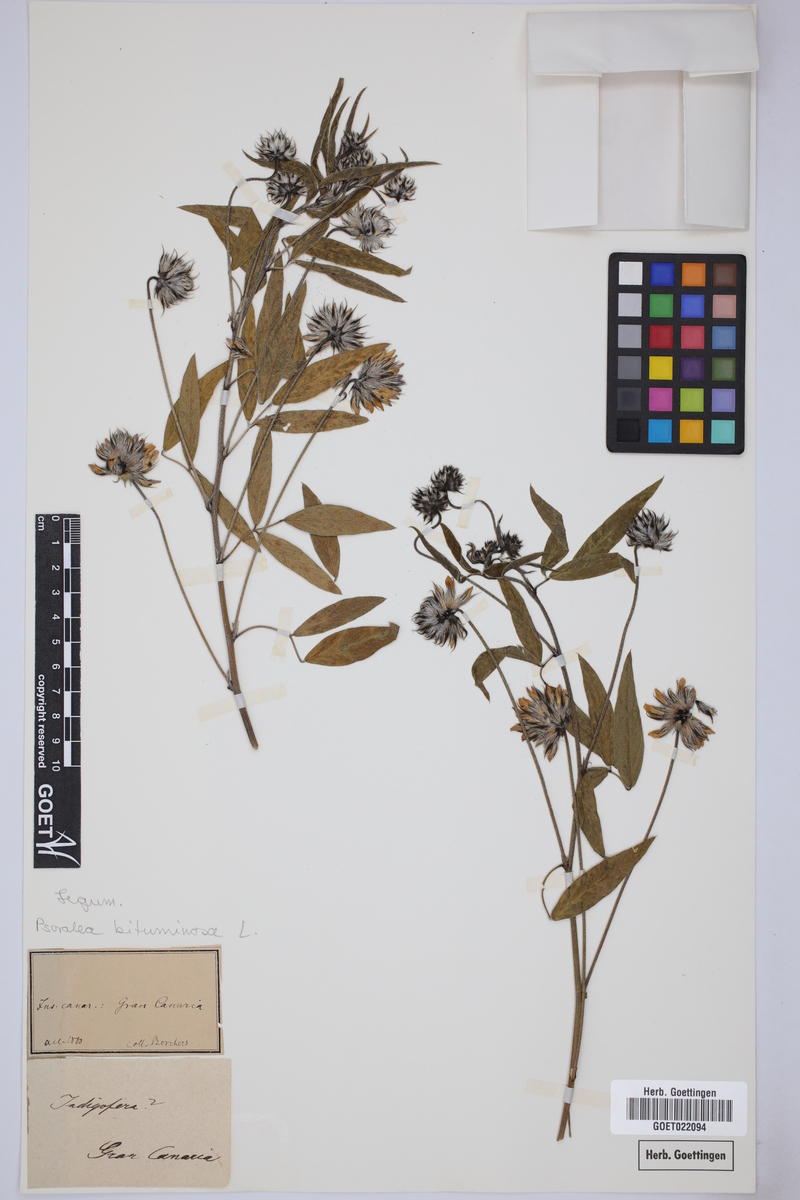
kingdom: Plantae
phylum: Tracheophyta
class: Magnoliopsida
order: Fabales
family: Fabaceae
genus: Bituminaria
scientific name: Bituminaria bituminosa
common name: Arabian pea
